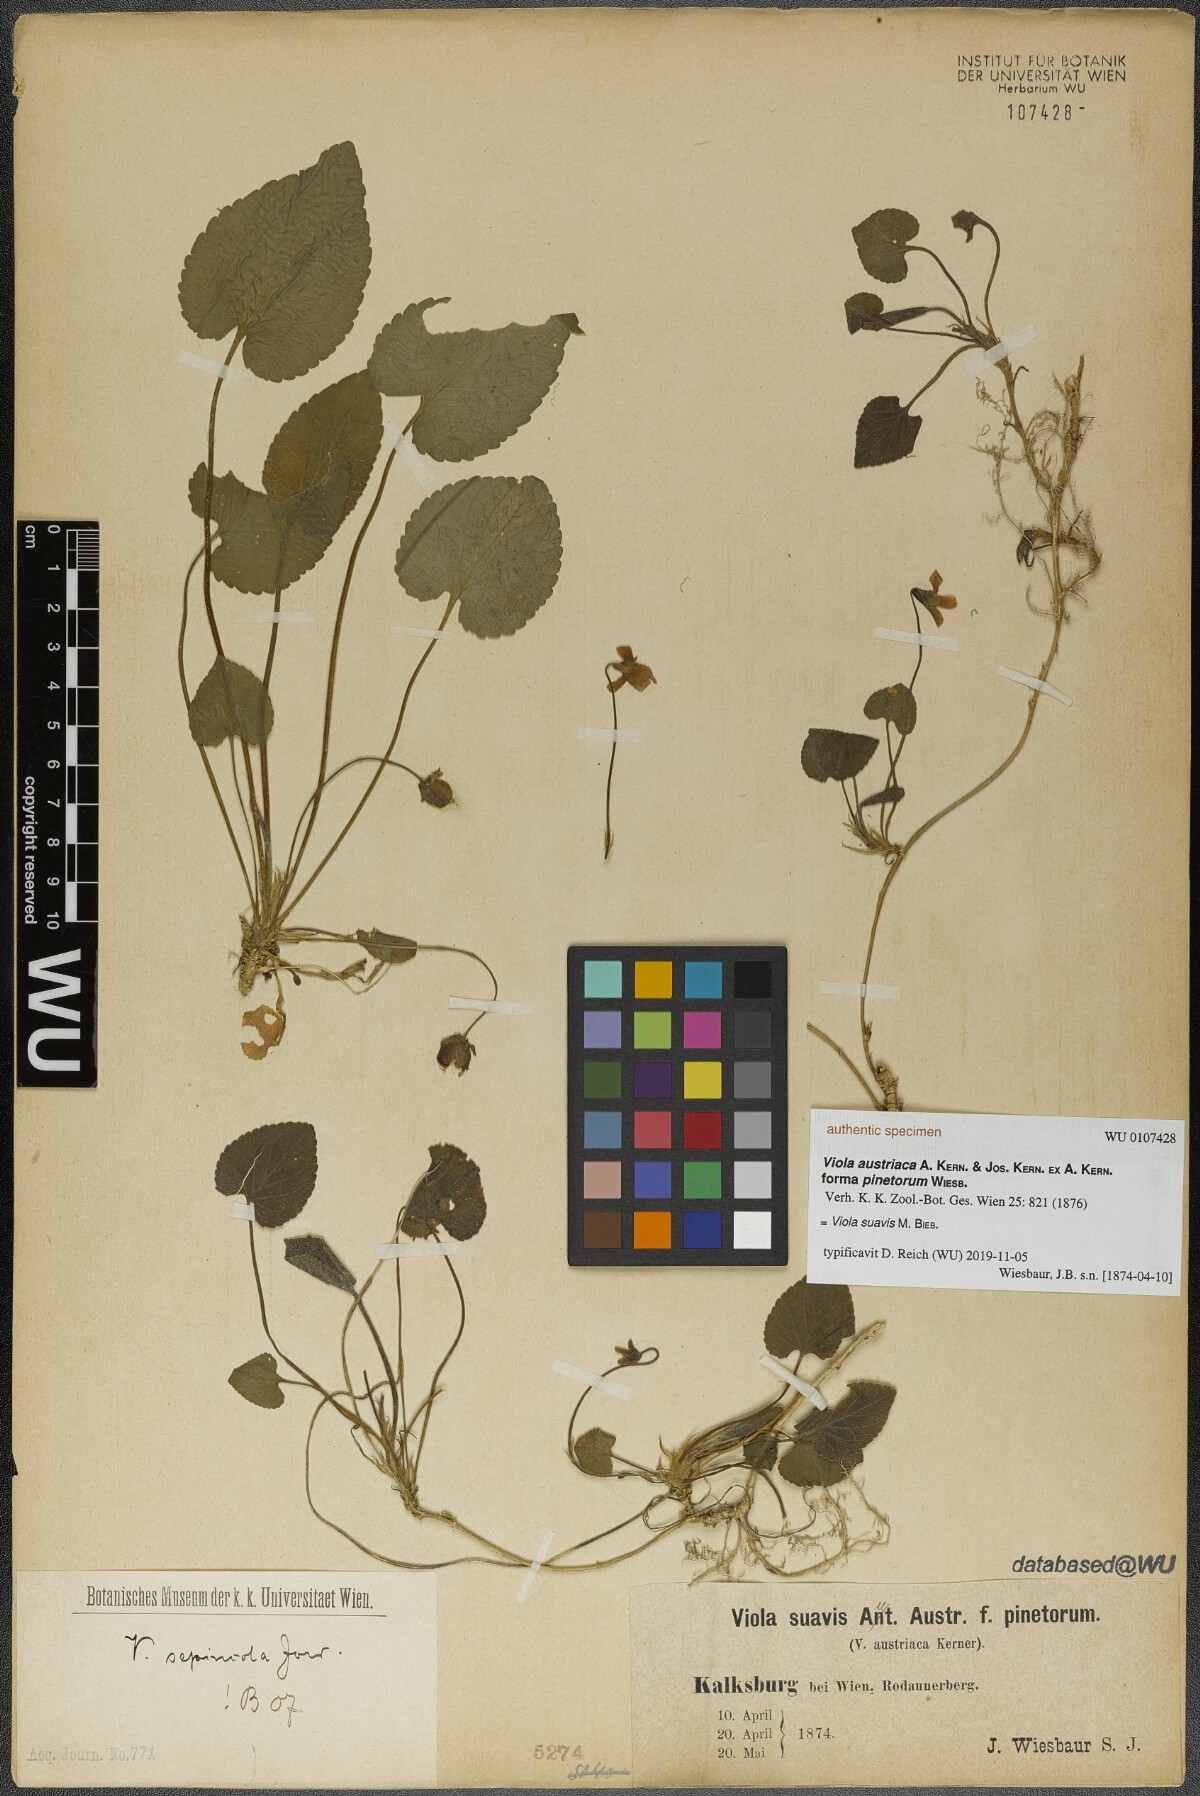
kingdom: Plantae
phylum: Tracheophyta
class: Magnoliopsida
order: Malpighiales
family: Violaceae
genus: Viola
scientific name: Viola suavis
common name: Russian violet
